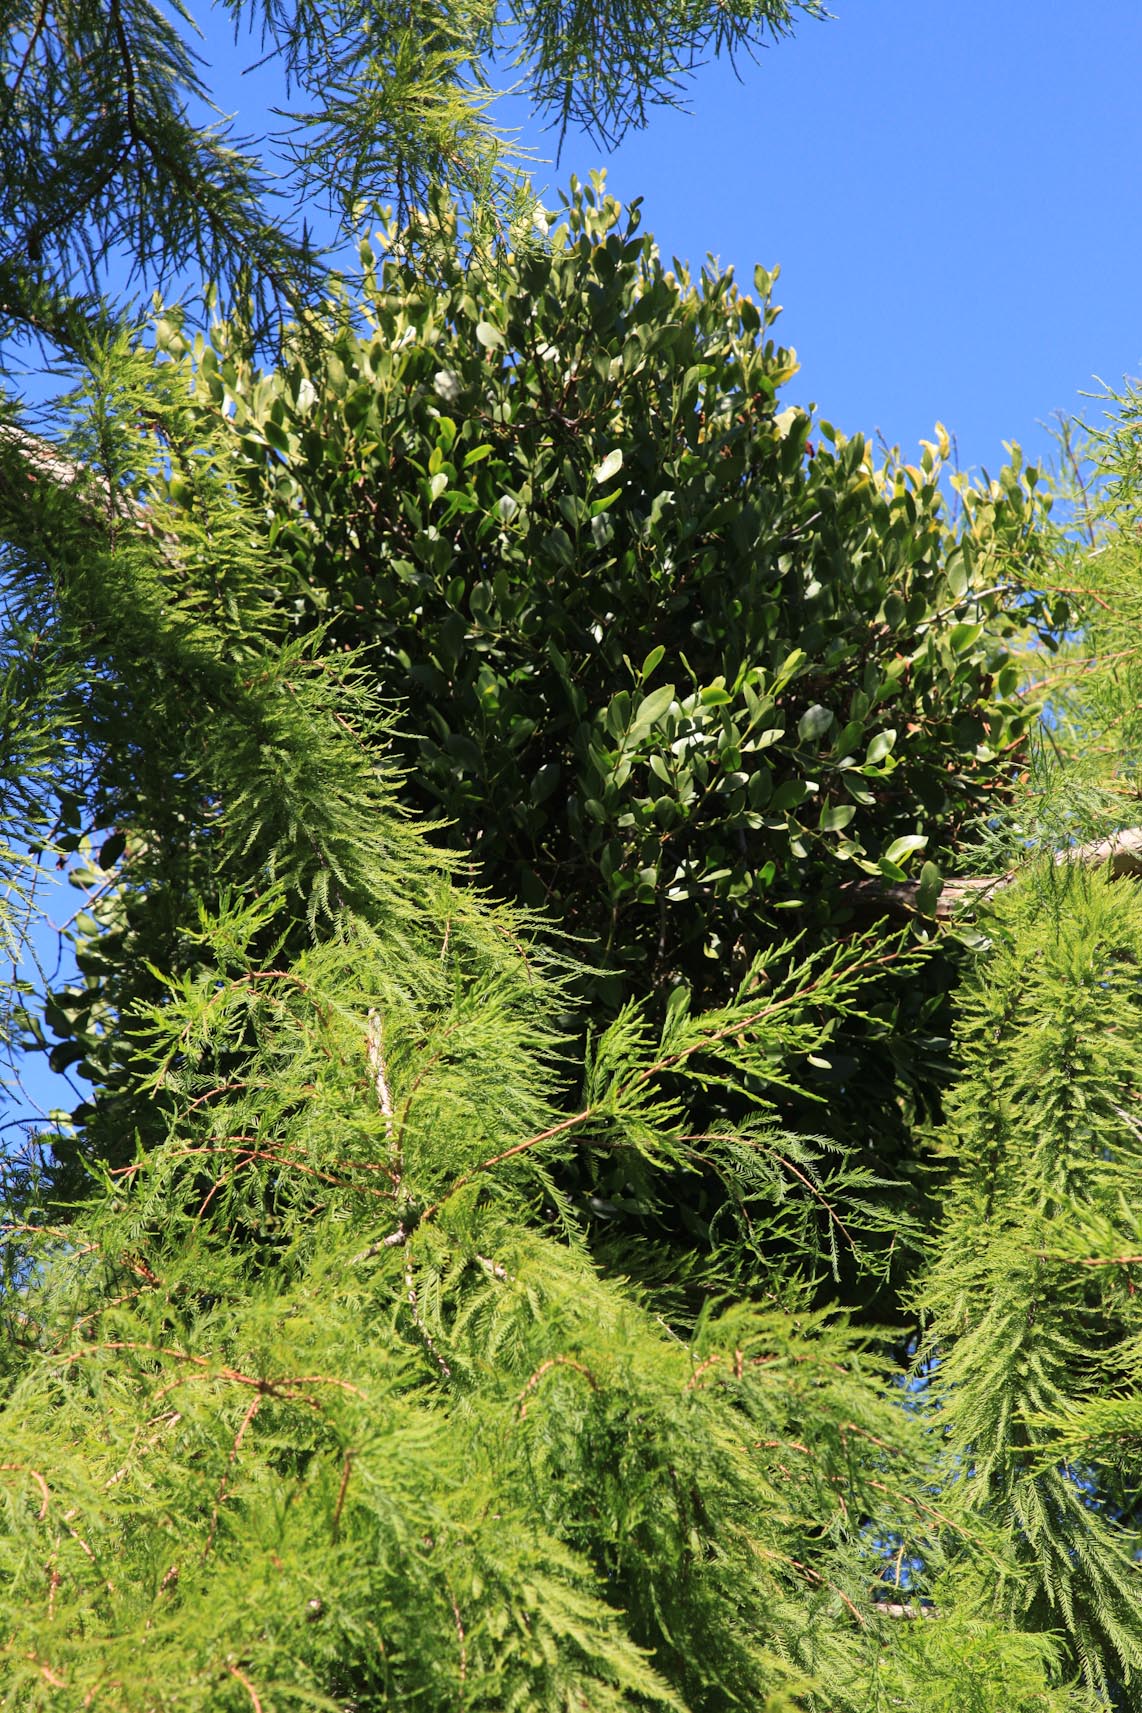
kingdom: Plantae
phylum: Tracheophyta
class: Magnoliopsida
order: Santalales
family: Loranthaceae
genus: Ileostylus
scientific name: Ileostylus micranthus
